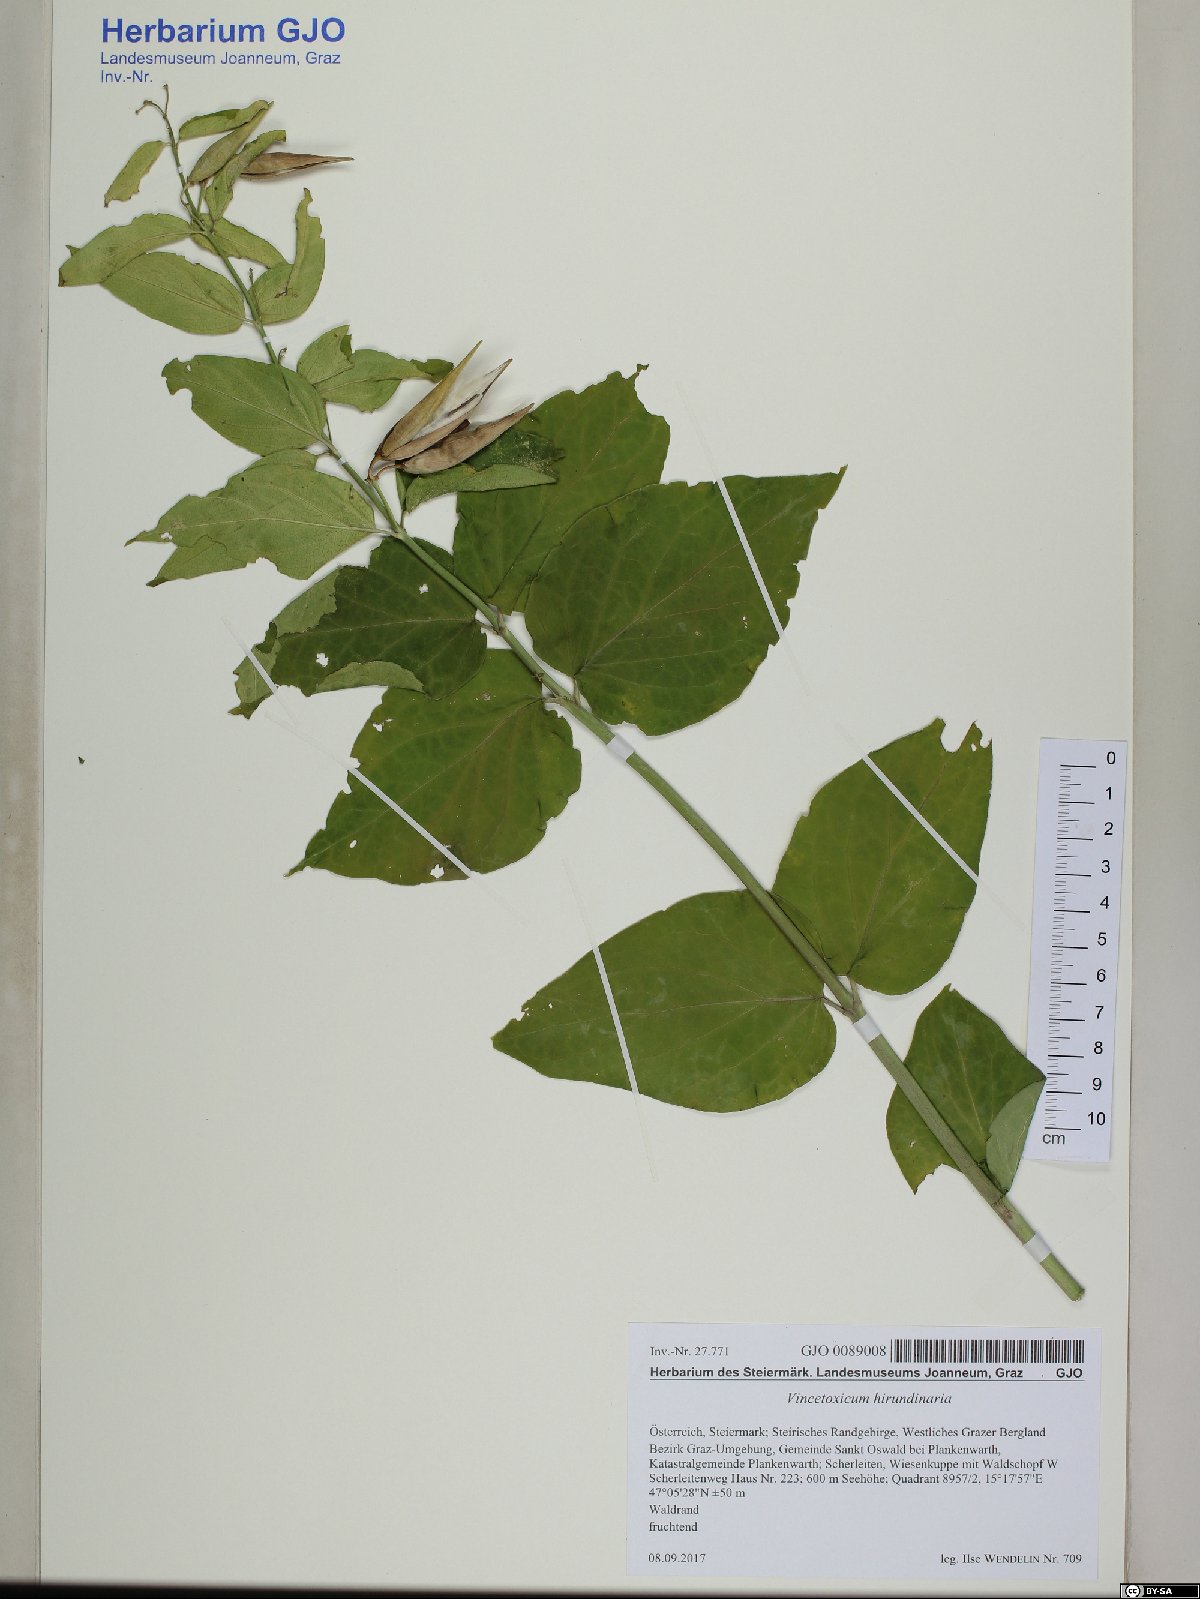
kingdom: Plantae
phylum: Tracheophyta
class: Magnoliopsida
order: Gentianales
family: Apocynaceae
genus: Vincetoxicum
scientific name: Vincetoxicum hirundinaria
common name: White swallowwort
